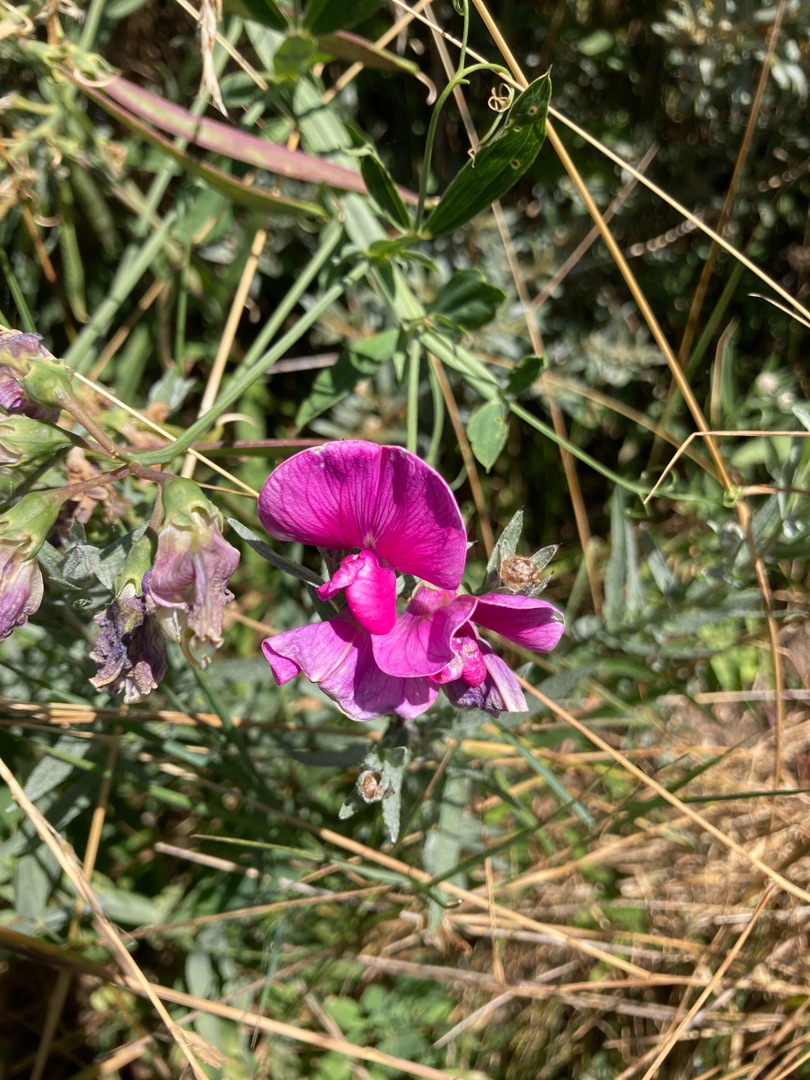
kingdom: Plantae
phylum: Tracheophyta
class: Magnoliopsida
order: Fabales
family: Fabaceae
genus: Lathyrus
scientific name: Lathyrus latifolius
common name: Flerårig ærteblomst
